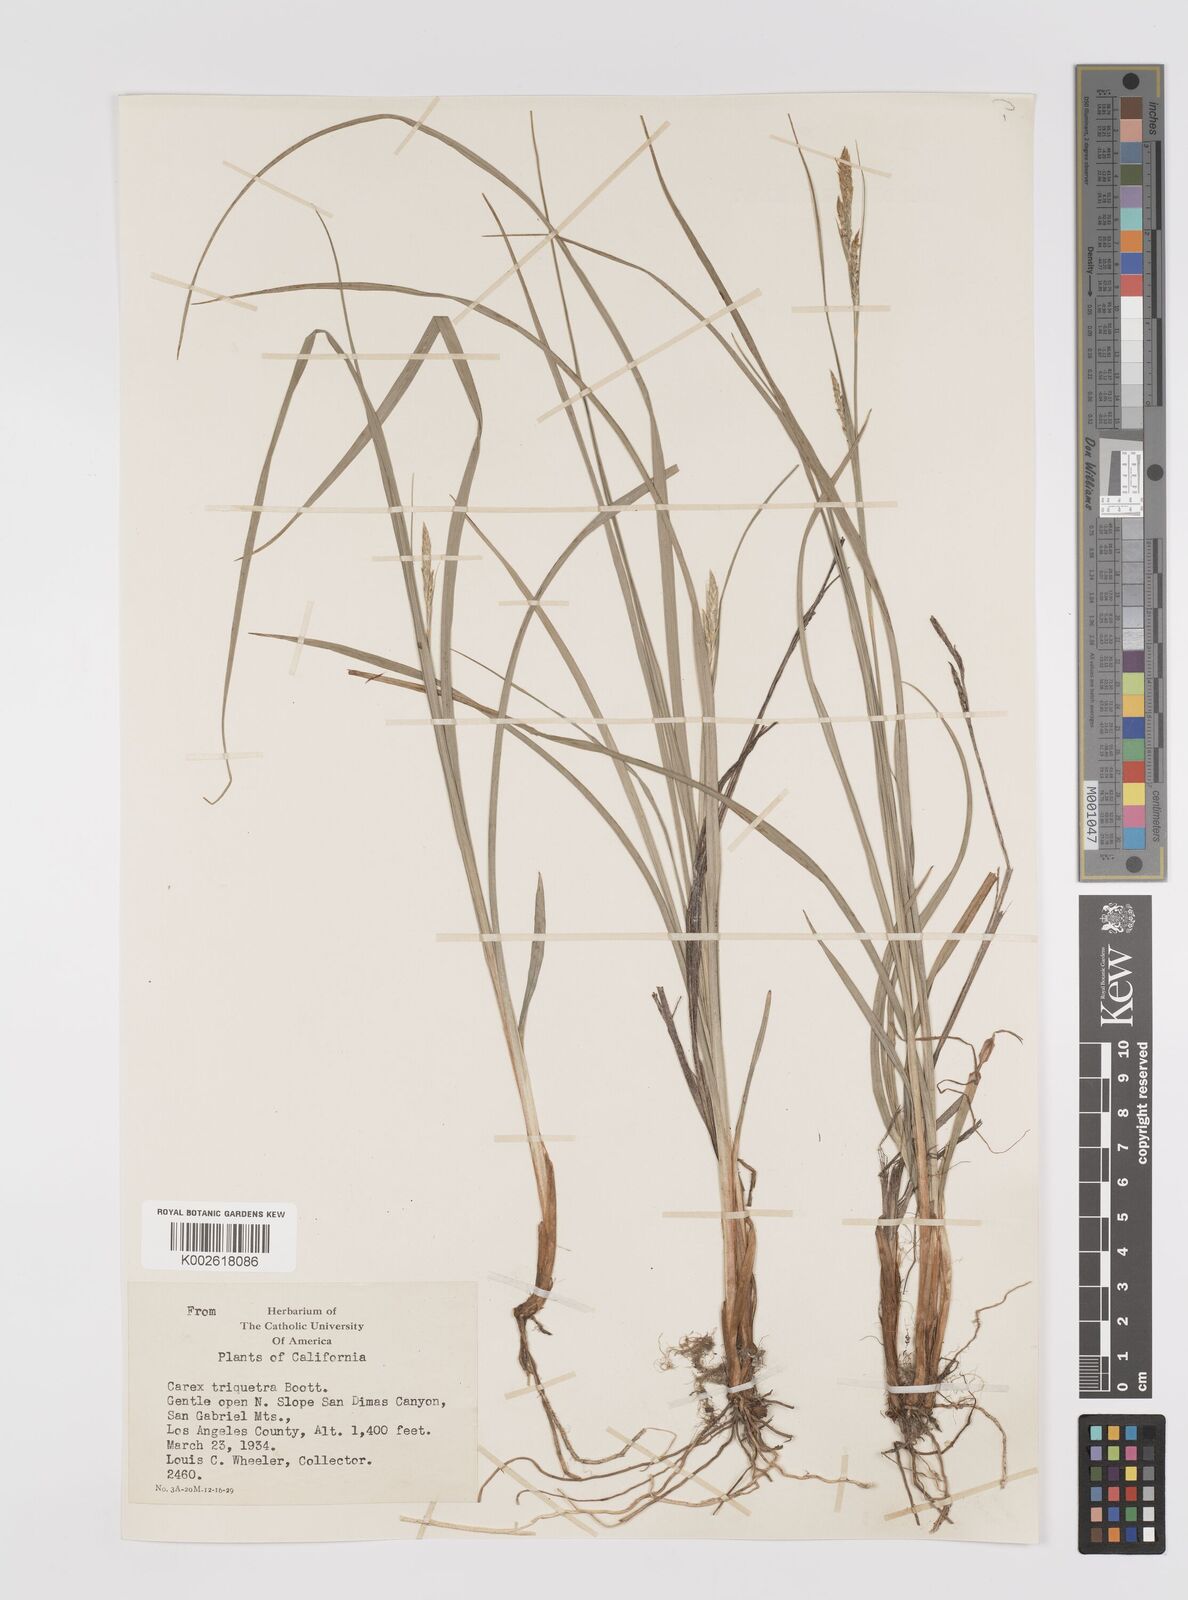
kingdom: Plantae
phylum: Tracheophyta
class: Liliopsida
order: Poales
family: Cyperaceae
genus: Carex
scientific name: Carex triquetra
